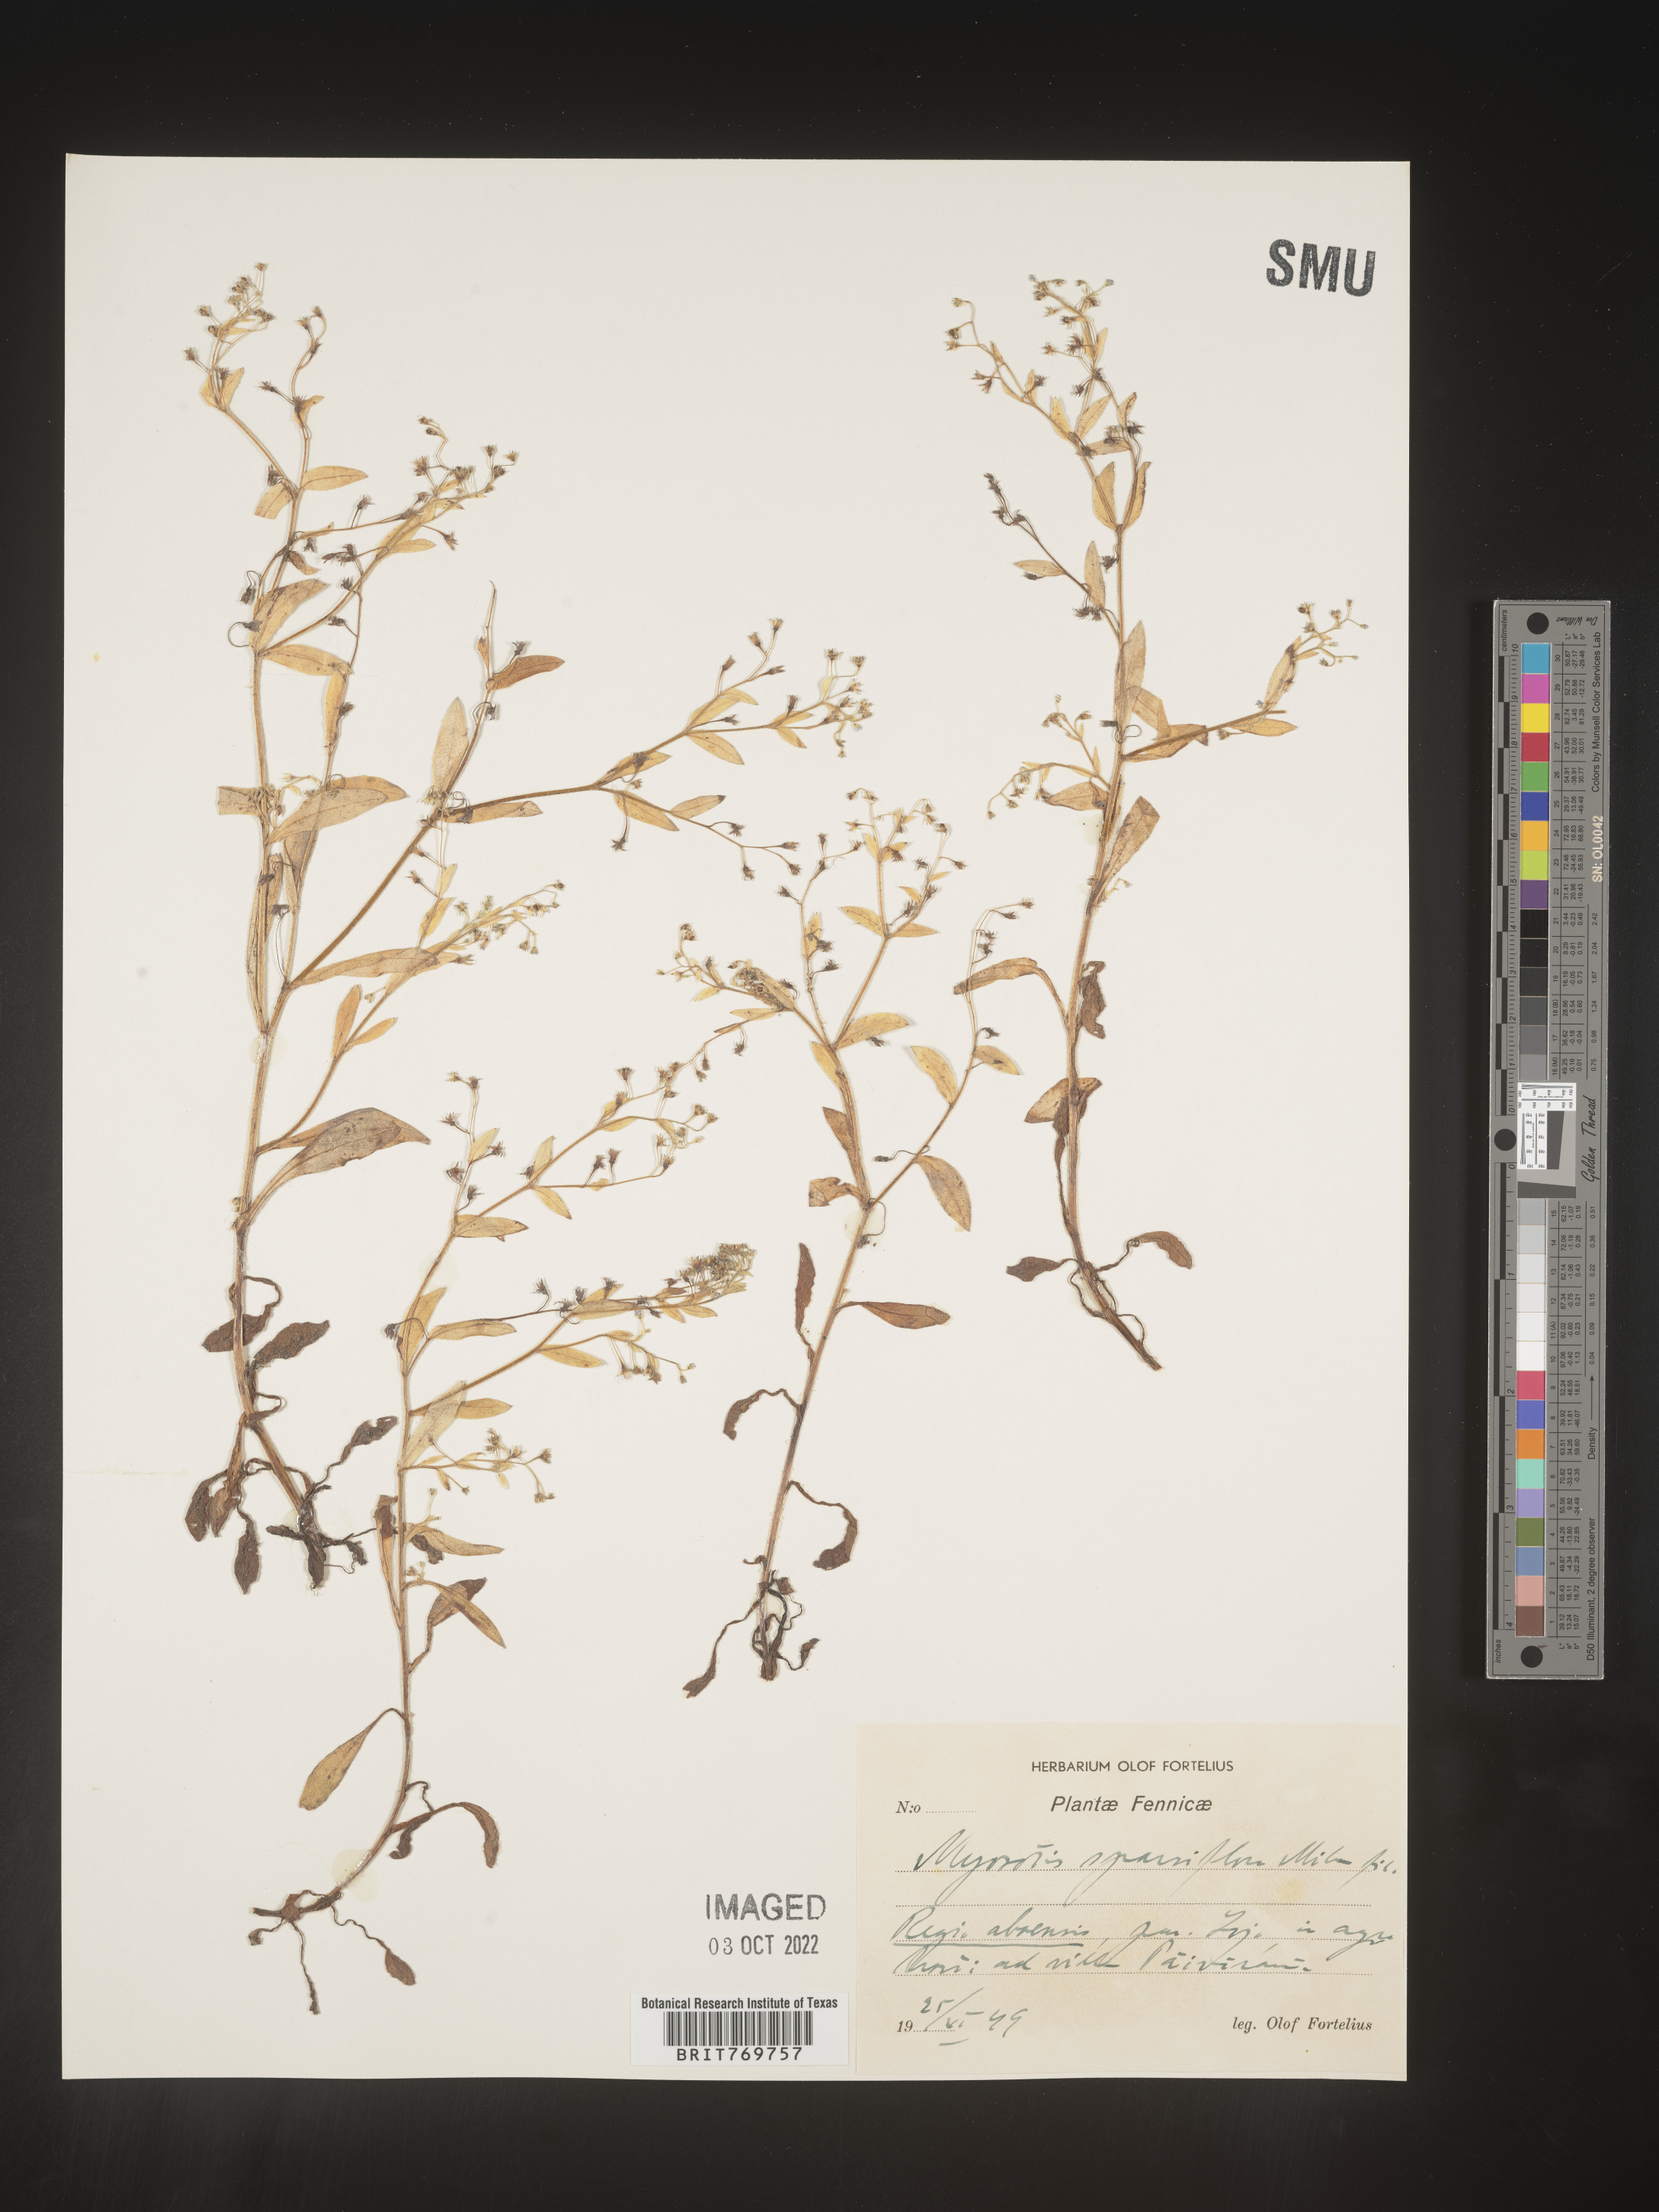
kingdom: Plantae
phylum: Tracheophyta
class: Magnoliopsida
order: Boraginales
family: Boraginaceae
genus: Myosotis
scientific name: Myosotis
